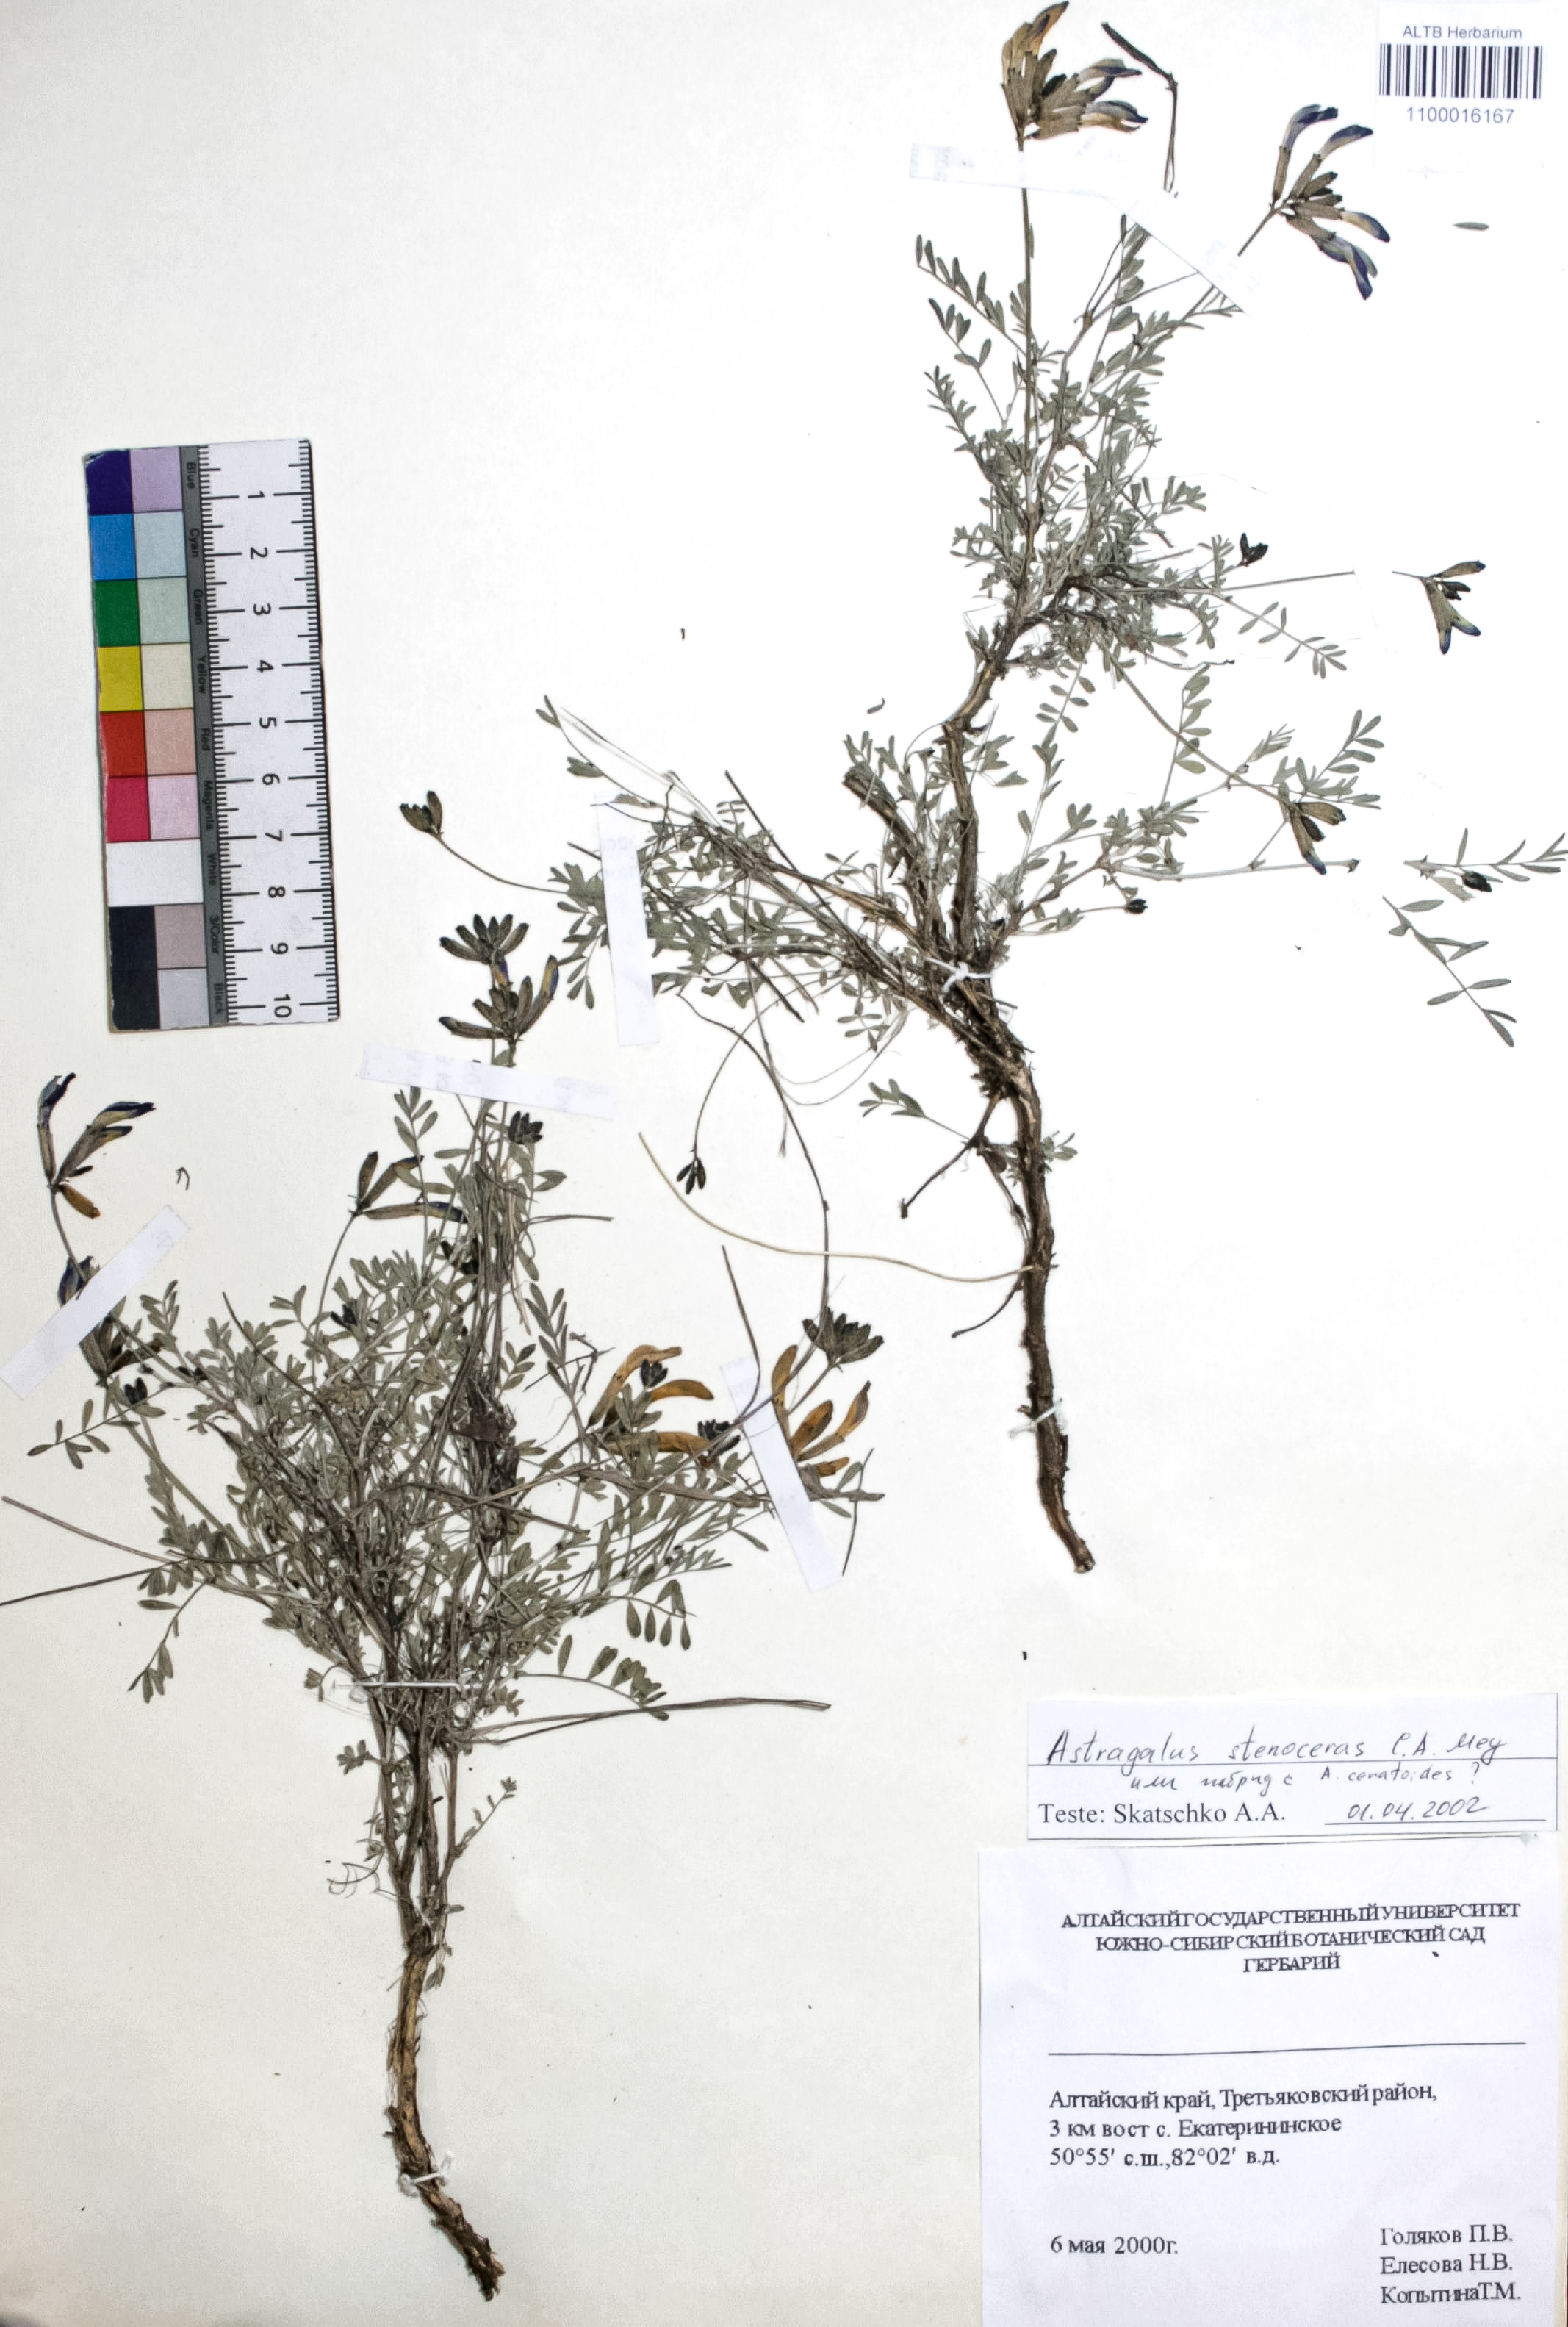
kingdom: Plantae
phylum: Tracheophyta
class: Magnoliopsida
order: Fabales
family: Fabaceae
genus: Astragalus
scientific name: Astragalus stenoceras
